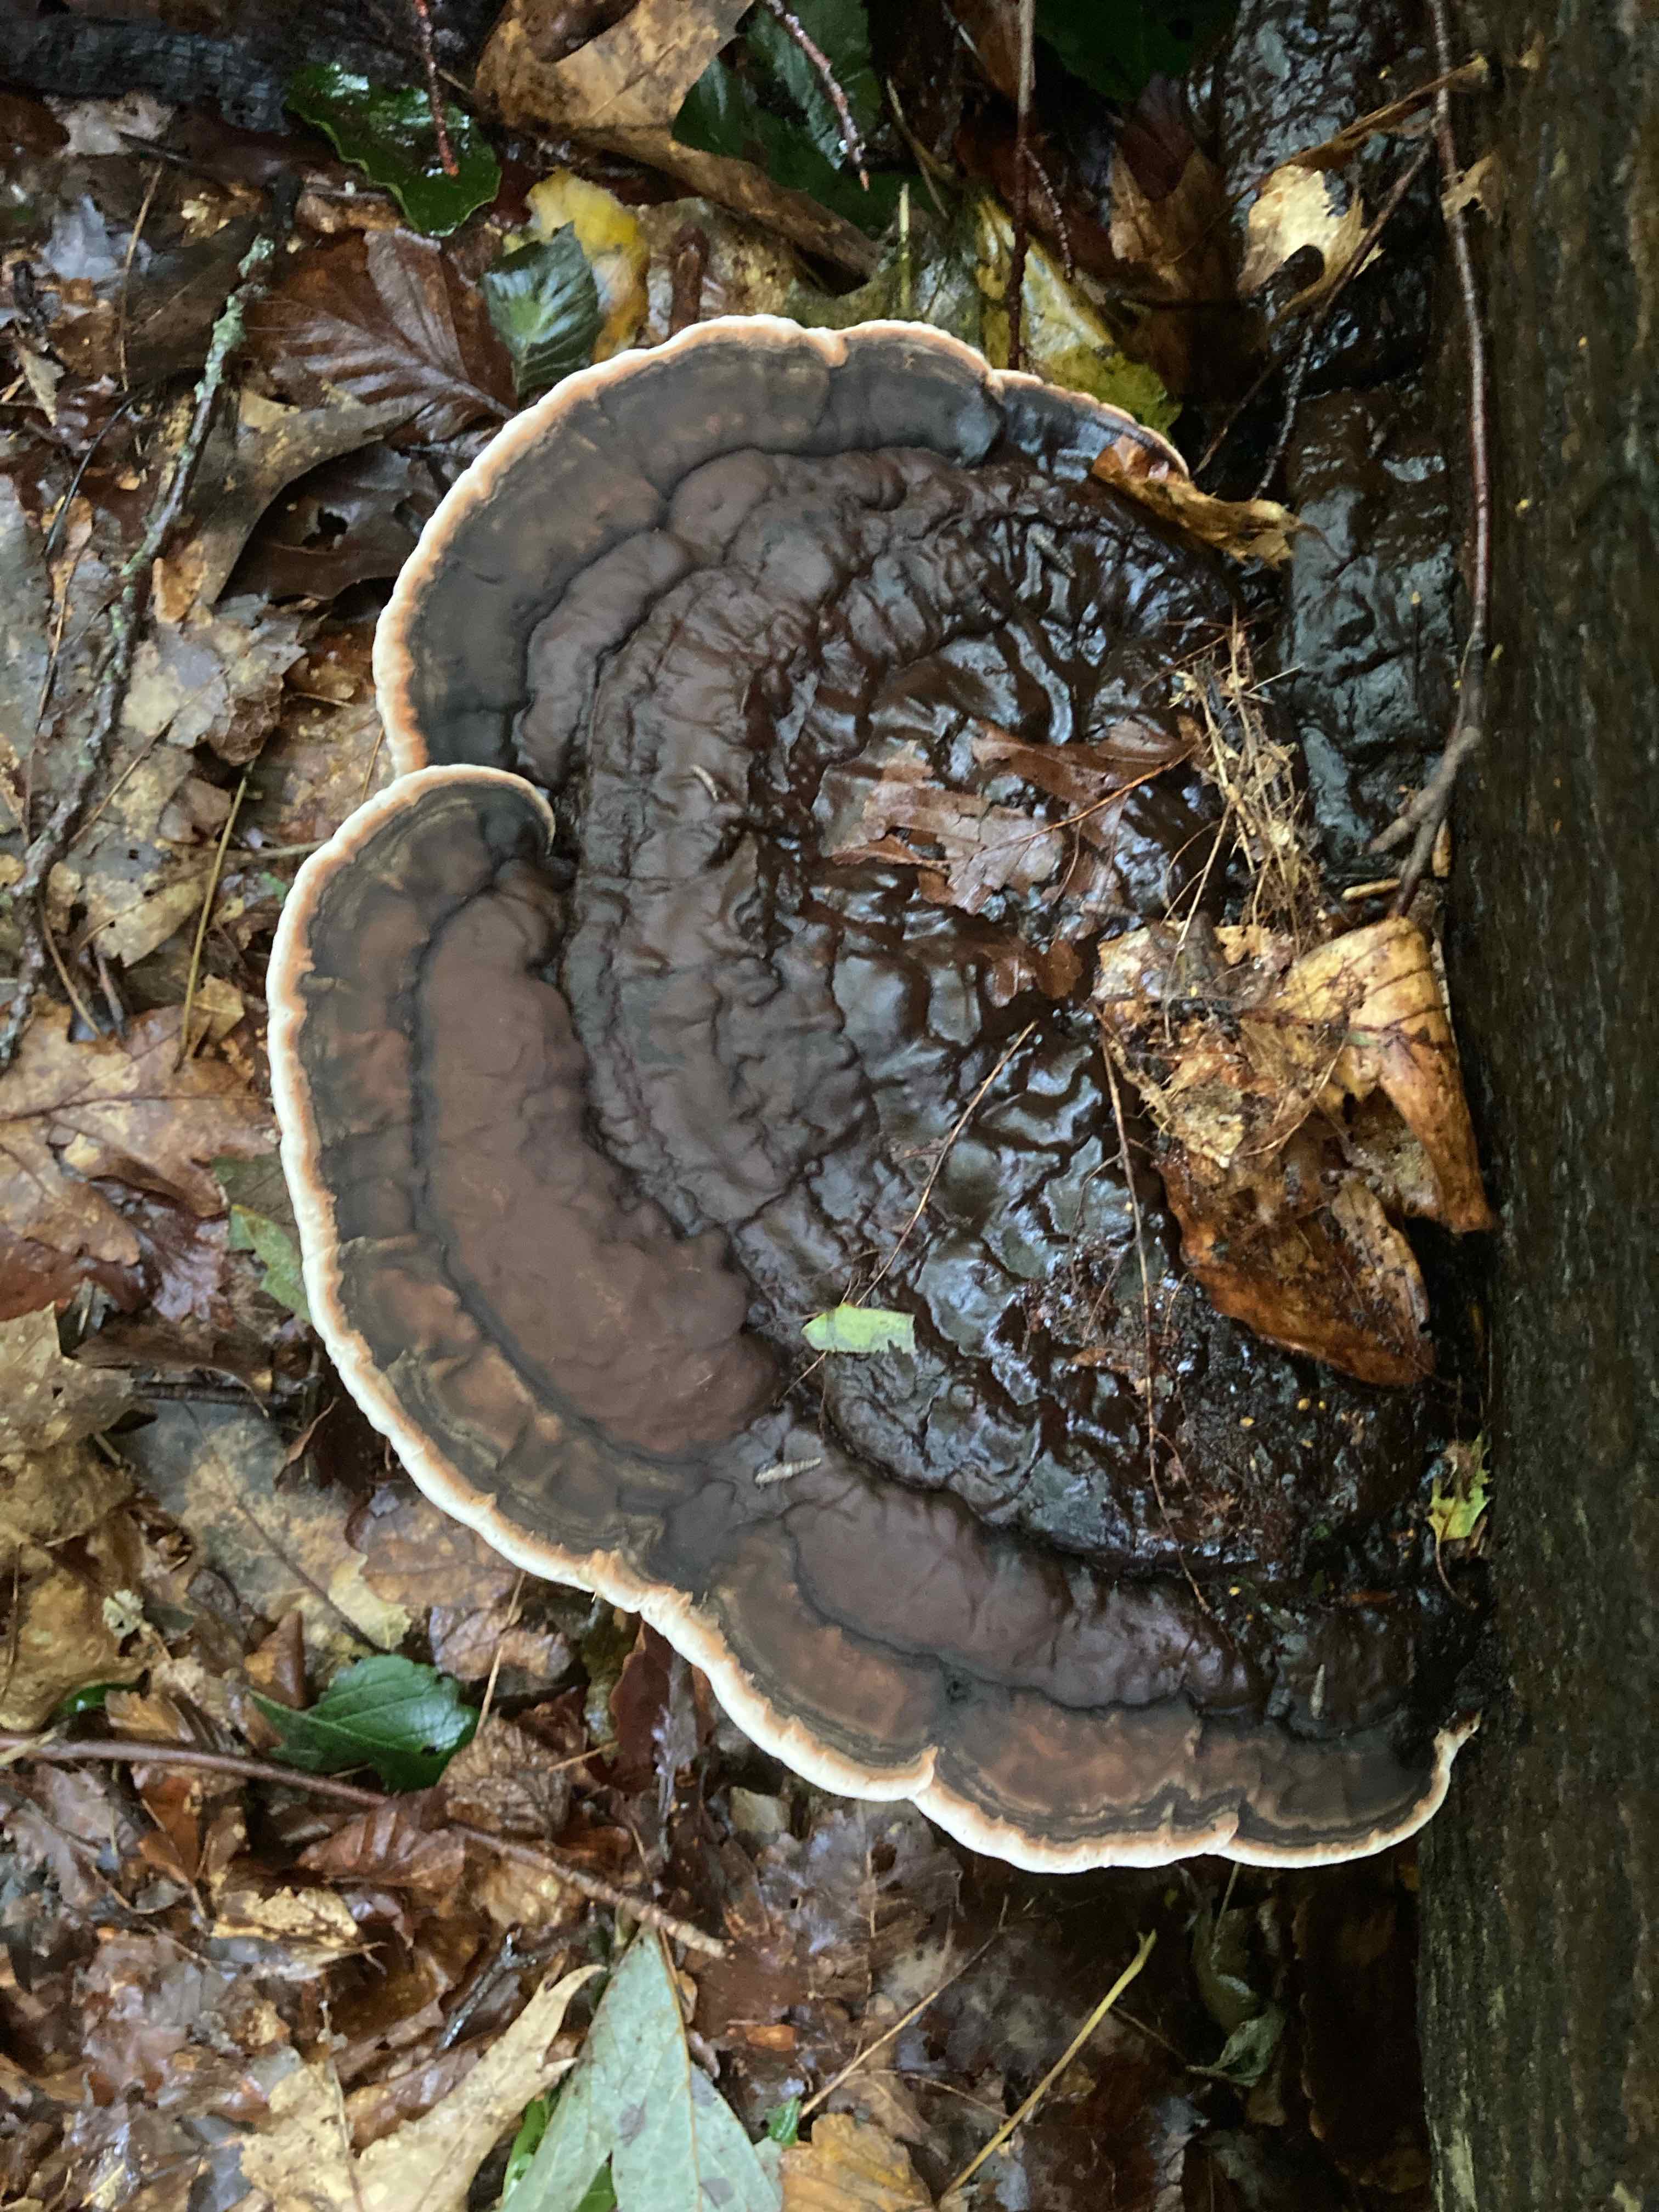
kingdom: Fungi
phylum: Basidiomycota
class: Agaricomycetes
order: Polyporales
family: Polyporaceae
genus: Ganoderma
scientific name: Ganoderma applanatum
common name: flad lakporesvamp
